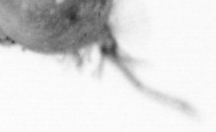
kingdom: Animalia
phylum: Arthropoda
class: Copepoda
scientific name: Copepoda
